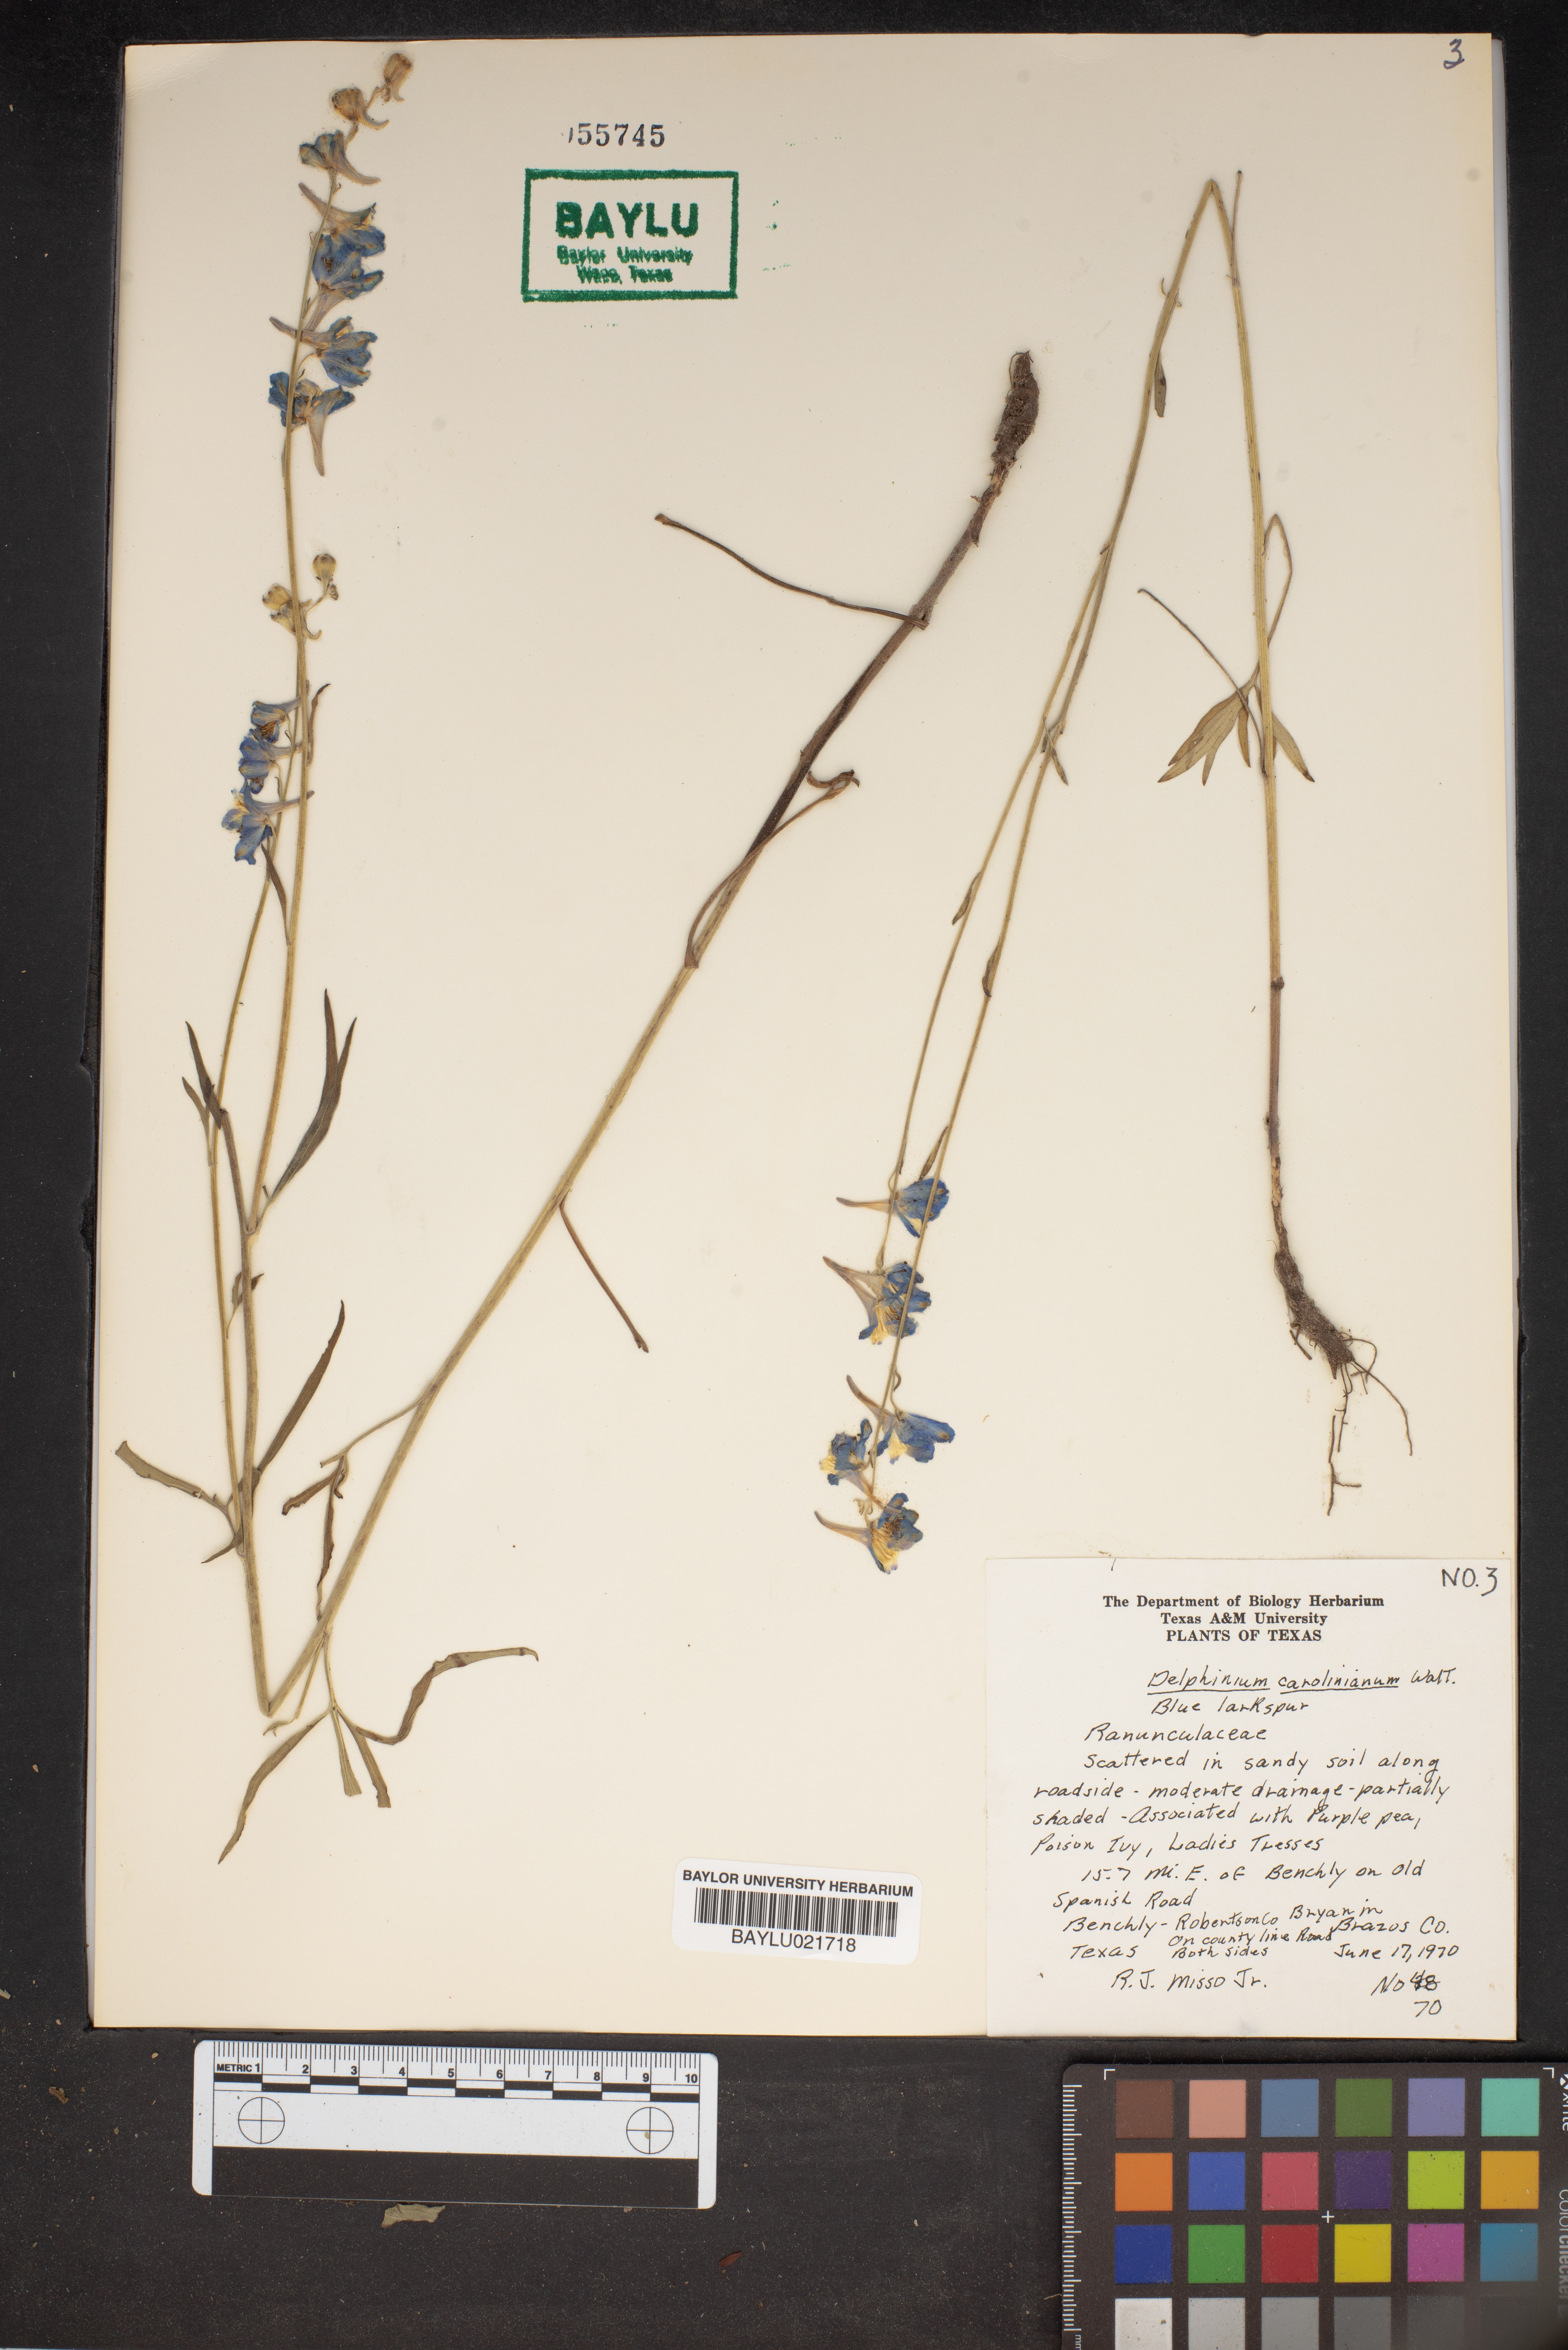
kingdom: Plantae
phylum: Tracheophyta
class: Magnoliopsida
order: Ranunculales
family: Ranunculaceae
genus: Delphinium
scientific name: Delphinium carolinianum
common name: Carolina larkspur
